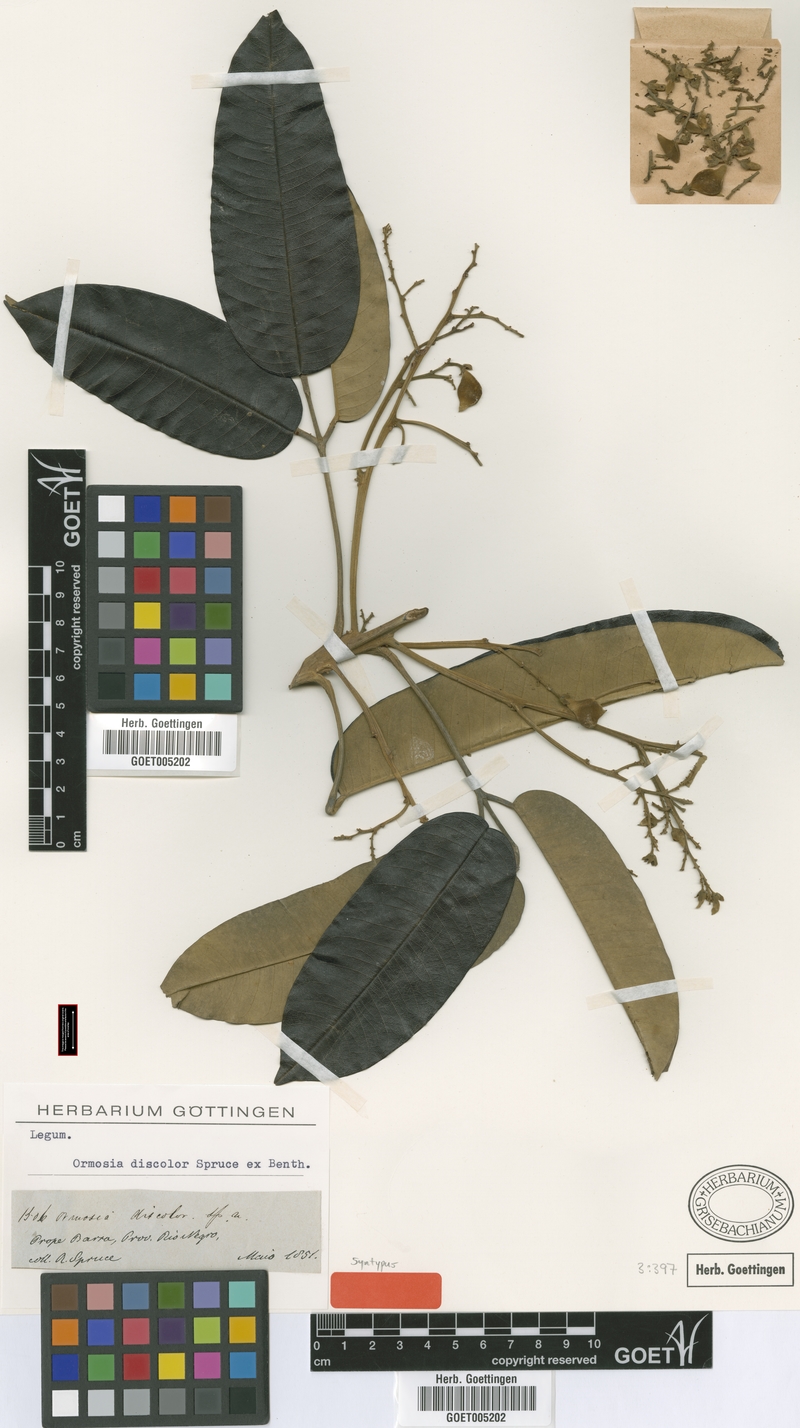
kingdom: Plantae
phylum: Tracheophyta
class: Magnoliopsida
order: Fabales
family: Fabaceae
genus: Ormosia
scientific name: Ormosia discolor
